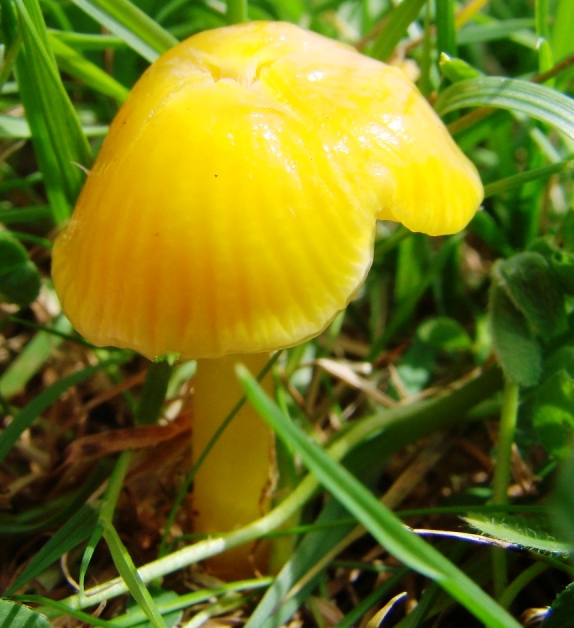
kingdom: Fungi
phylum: Basidiomycota
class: Agaricomycetes
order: Agaricales
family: Hygrophoraceae
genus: Hygrocybe
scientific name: Hygrocybe glutinipes
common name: slimstokket vokshat
